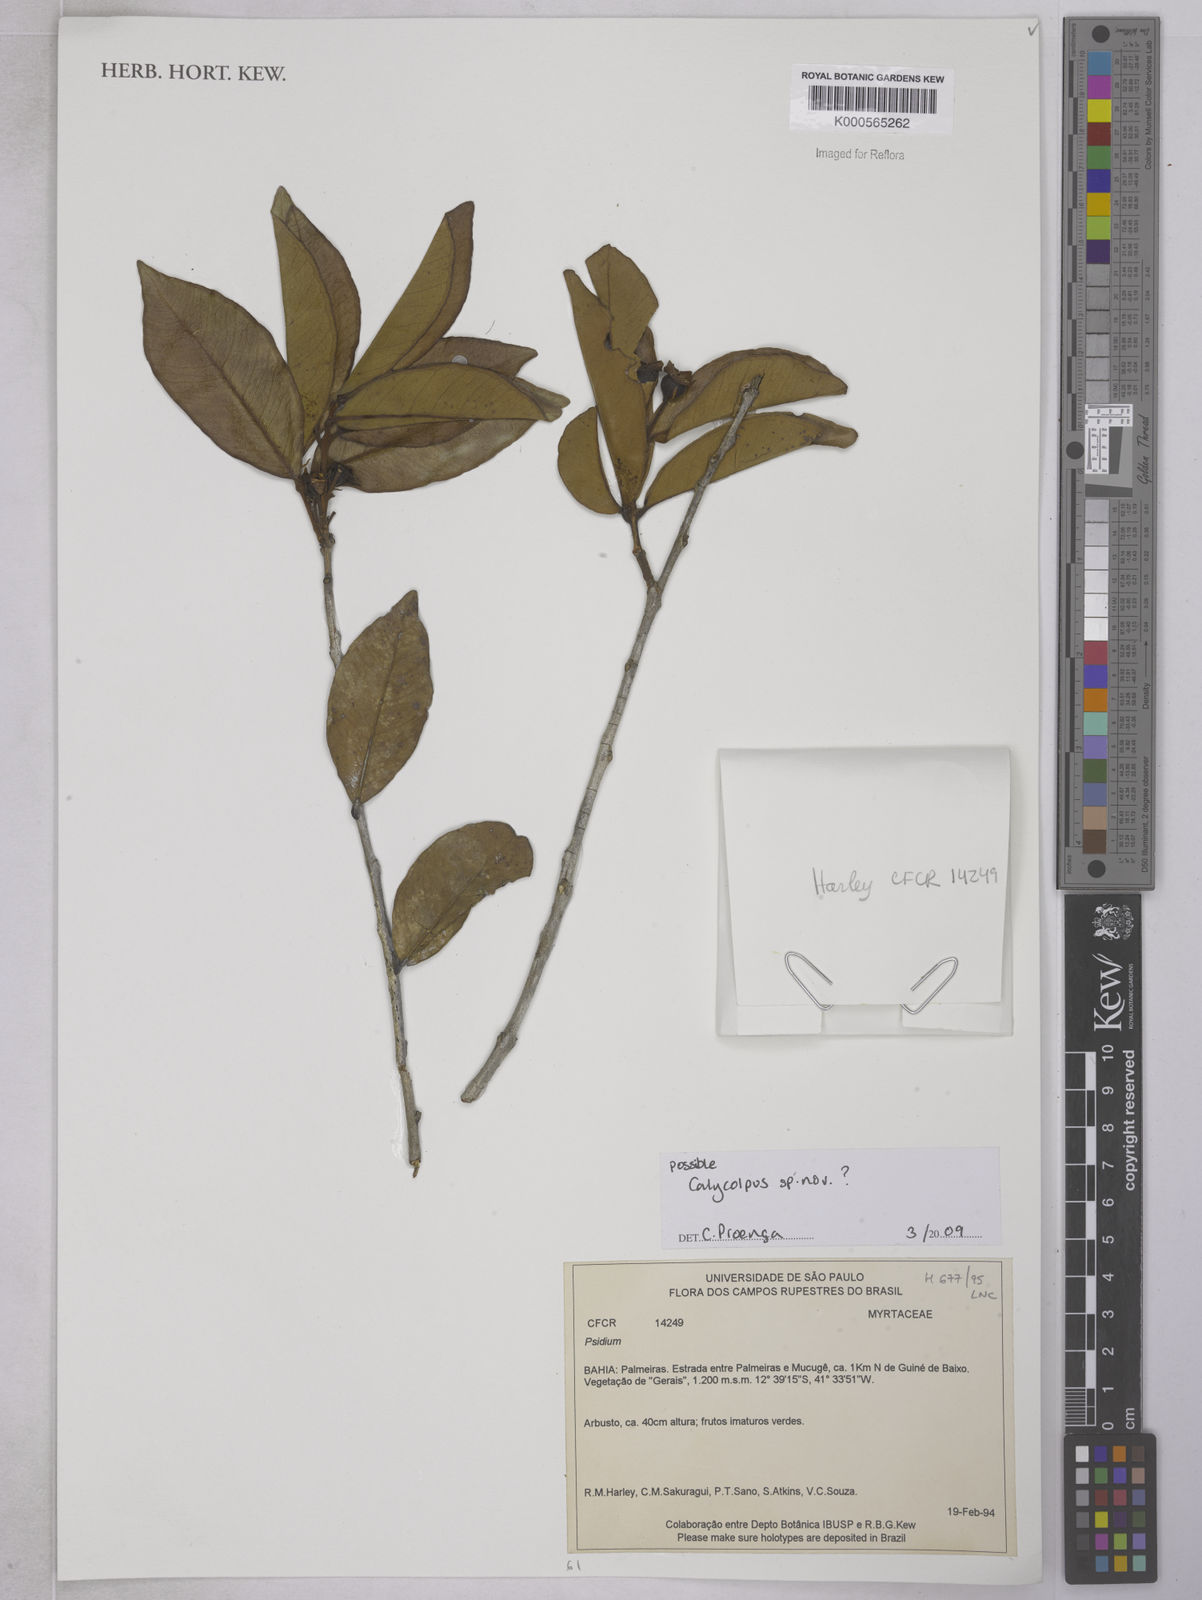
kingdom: Plantae
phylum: Tracheophyta
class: Magnoliopsida
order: Myrtales
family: Myrtaceae
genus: Calycolpus
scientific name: Calycolpus
